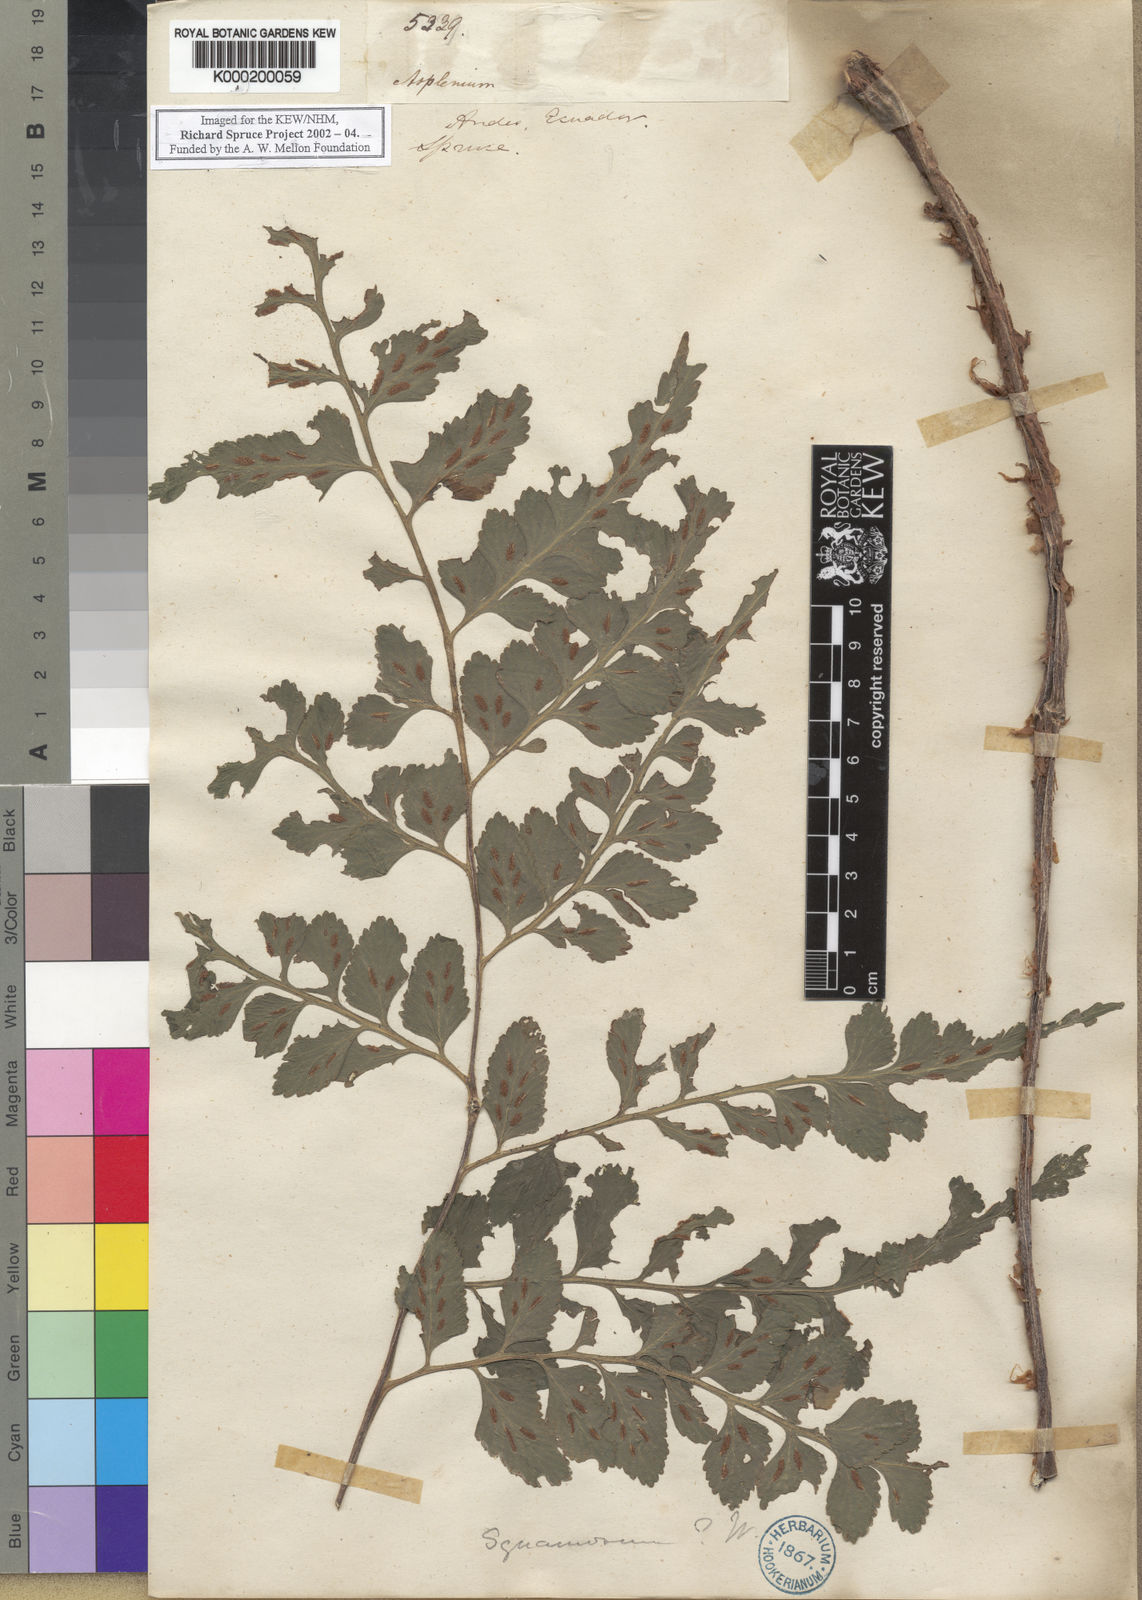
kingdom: Plantae
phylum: Tracheophyta
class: Polypodiopsida
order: Polypodiales
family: Aspleniaceae
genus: Asplenium
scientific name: Asplenium squamosum
